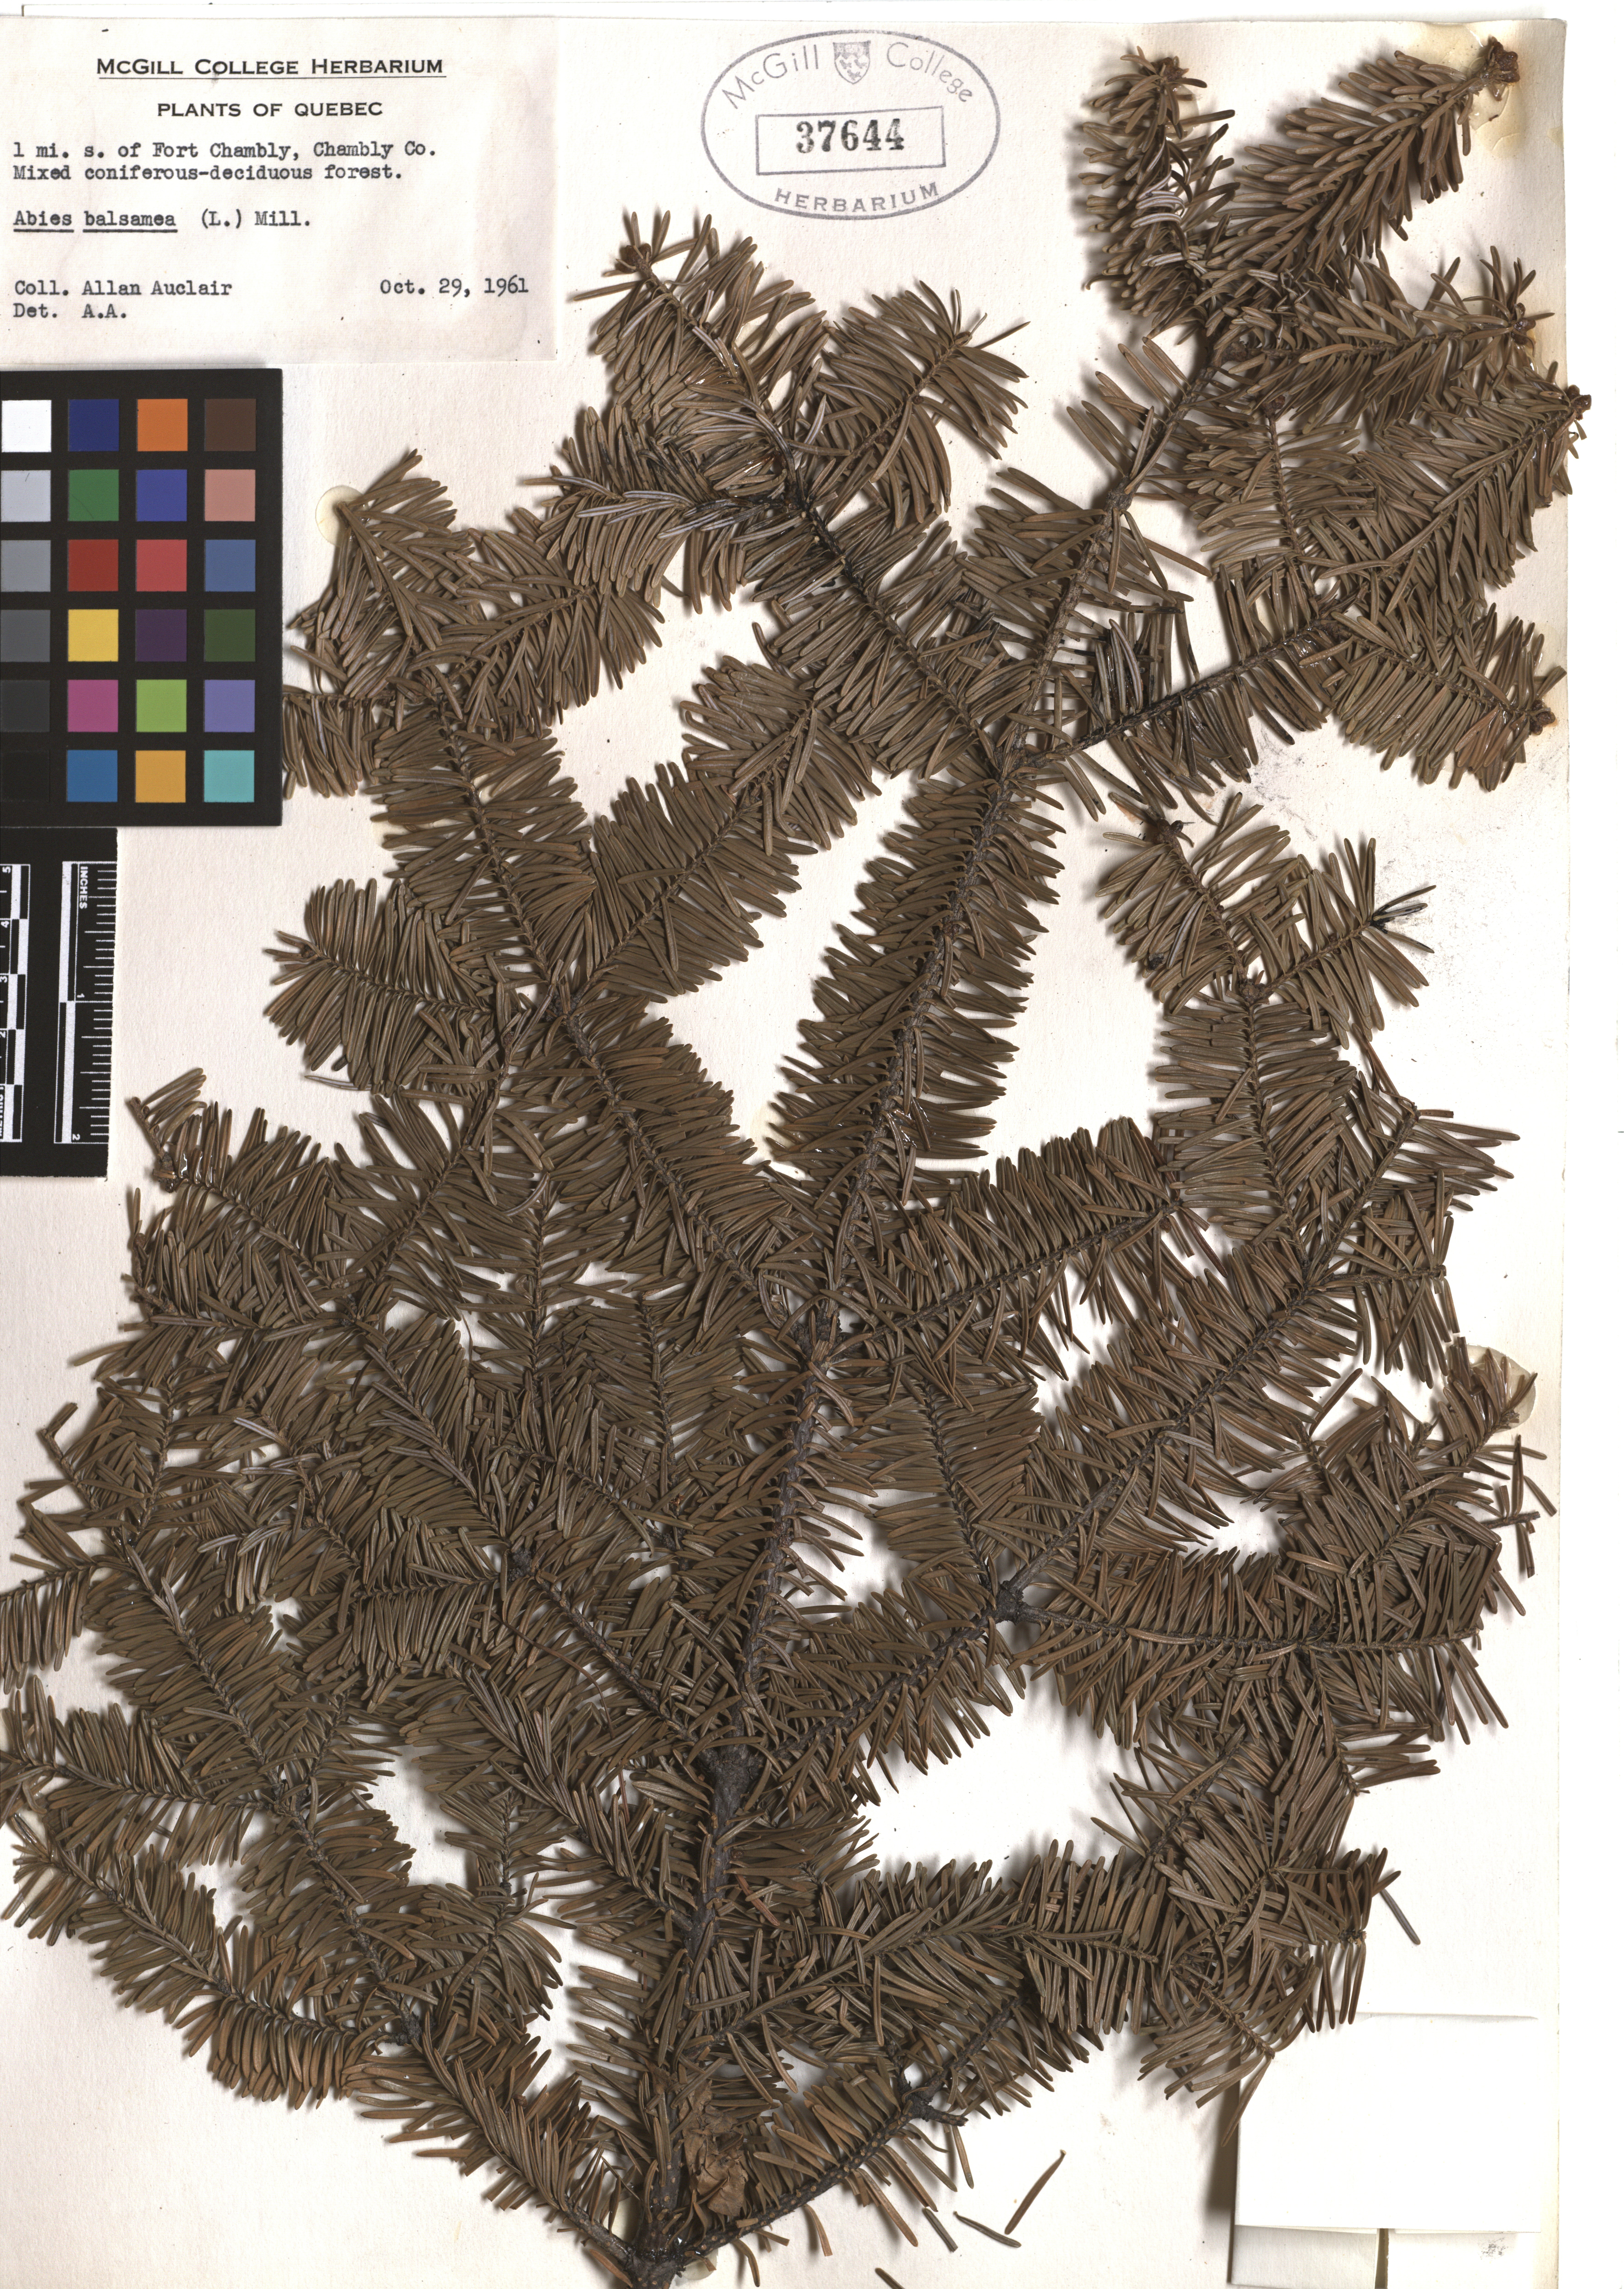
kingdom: Plantae
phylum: Tracheophyta
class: Pinopsida
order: Pinales
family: Pinaceae
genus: Abies
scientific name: Abies balsamea
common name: Balsam fir
